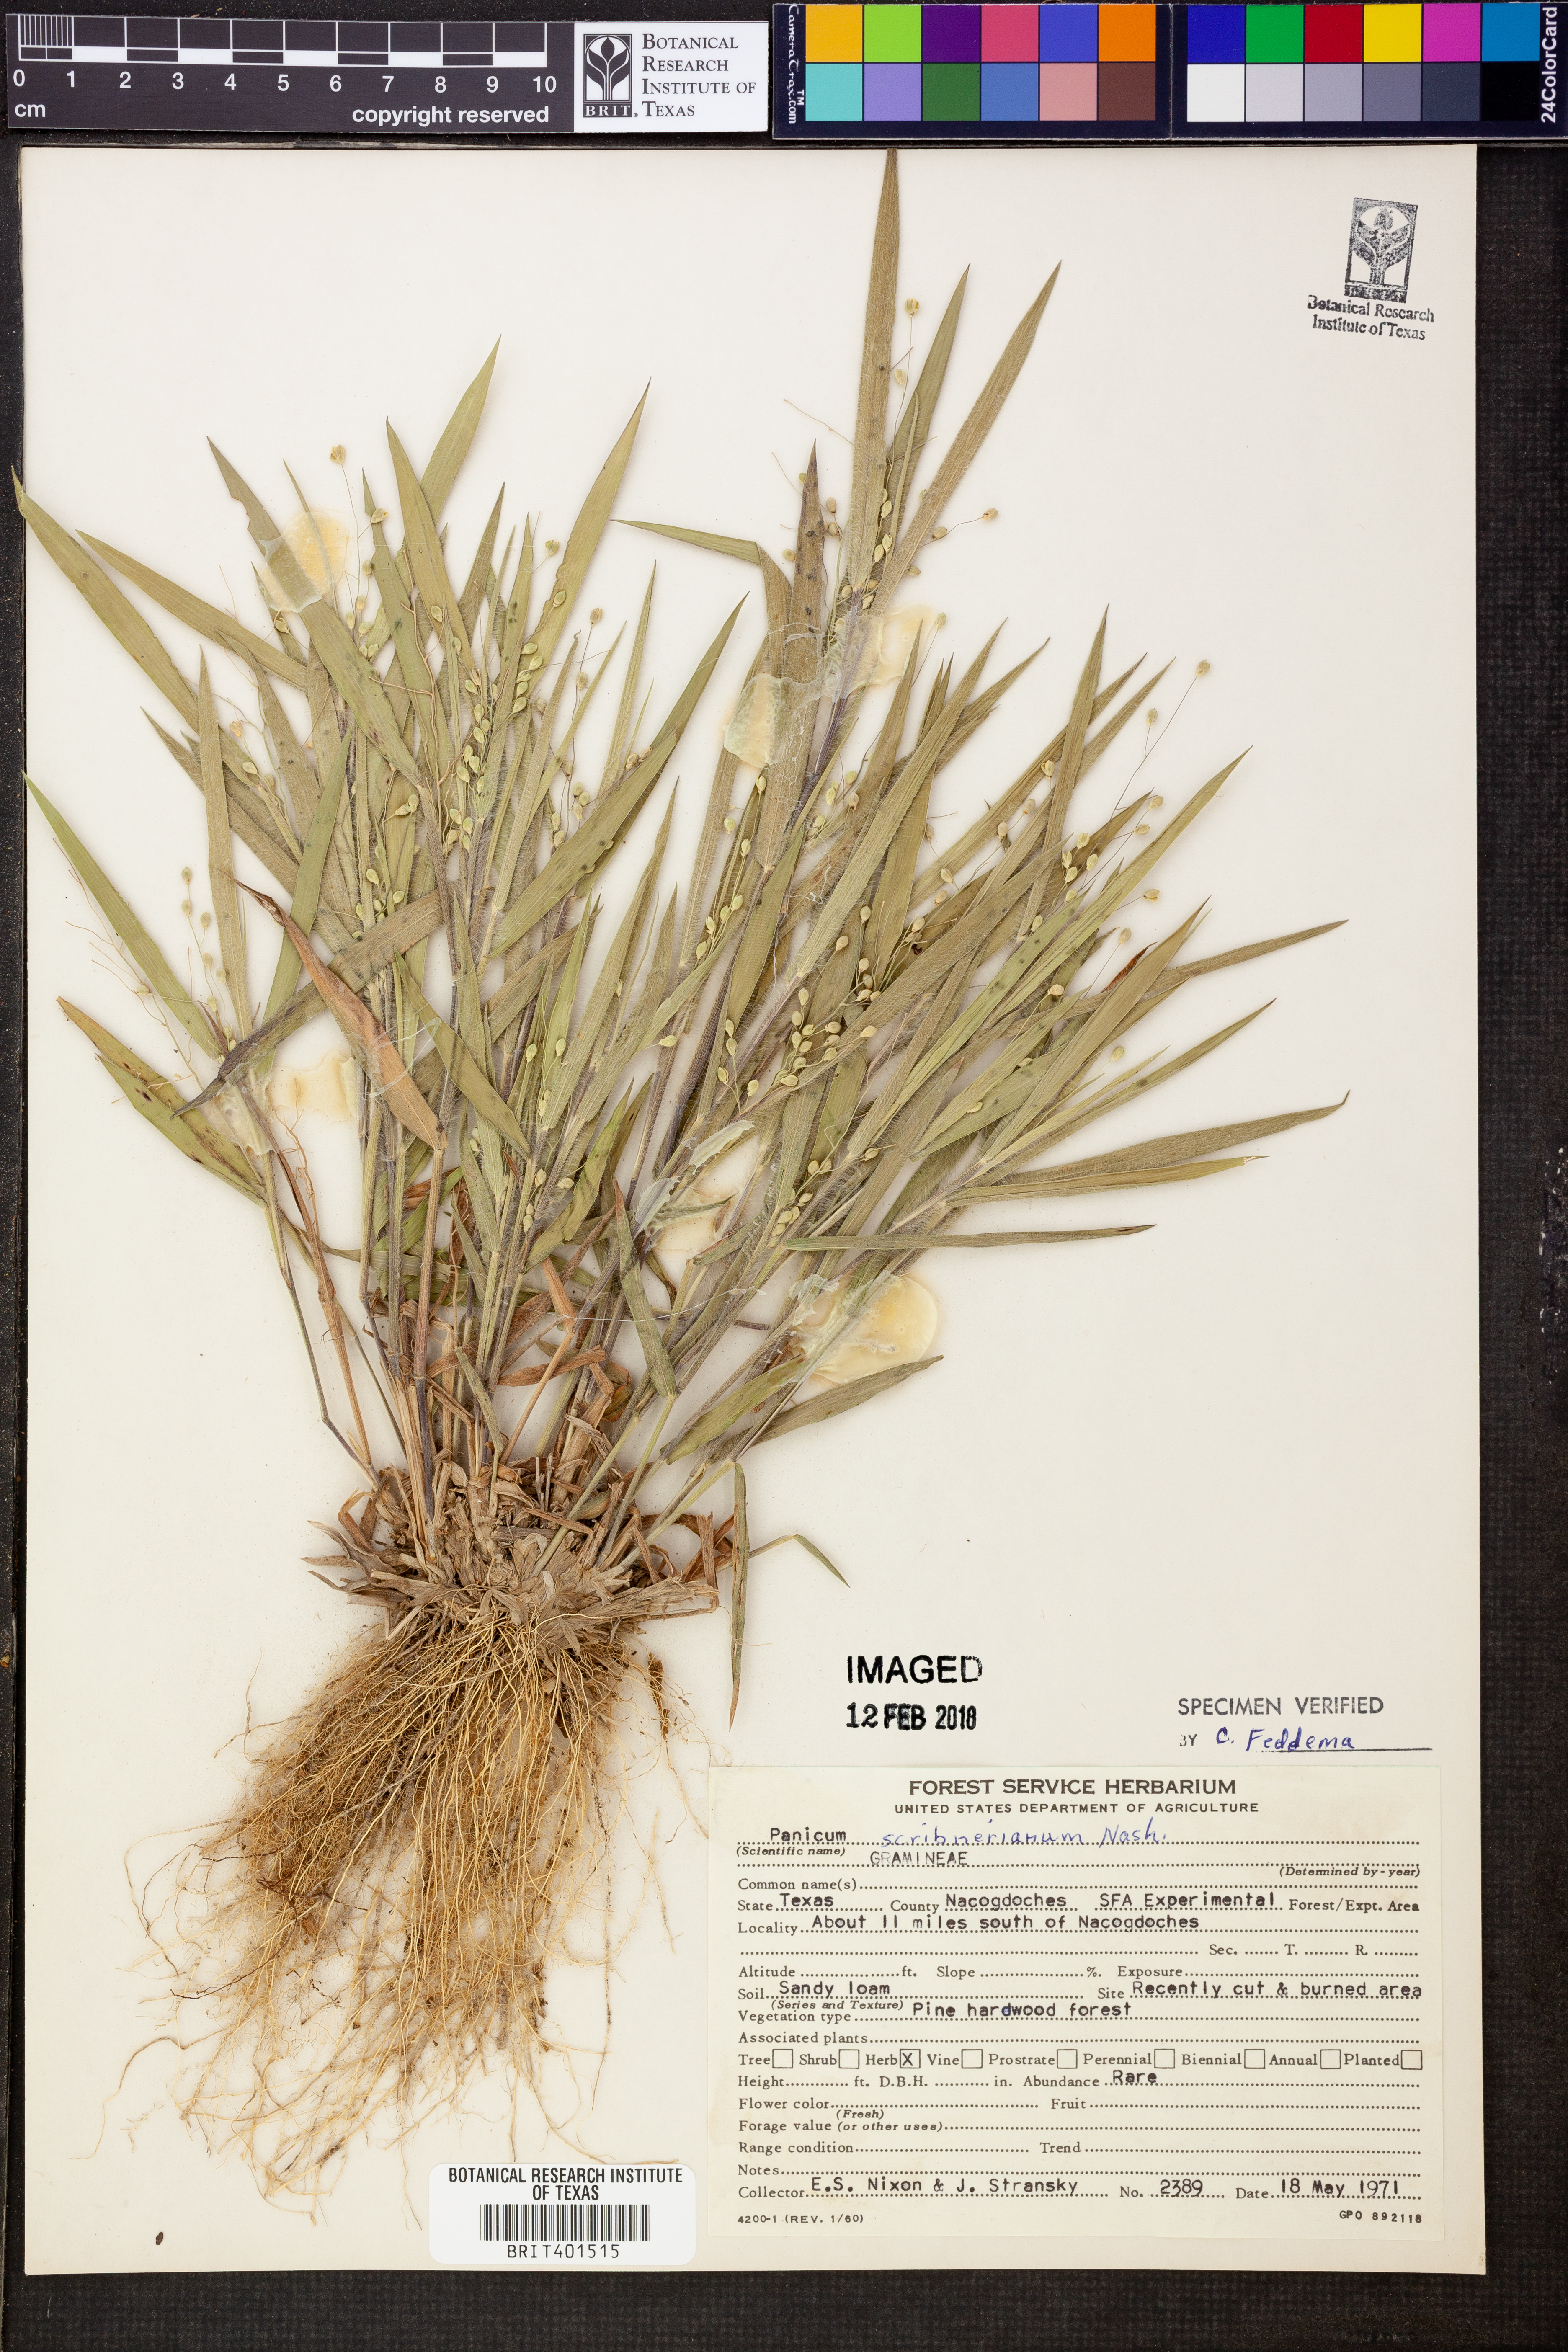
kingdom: Plantae
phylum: Tracheophyta
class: Liliopsida
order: Poales
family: Poaceae
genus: Dichanthelium
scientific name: Dichanthelium scribnerianum
